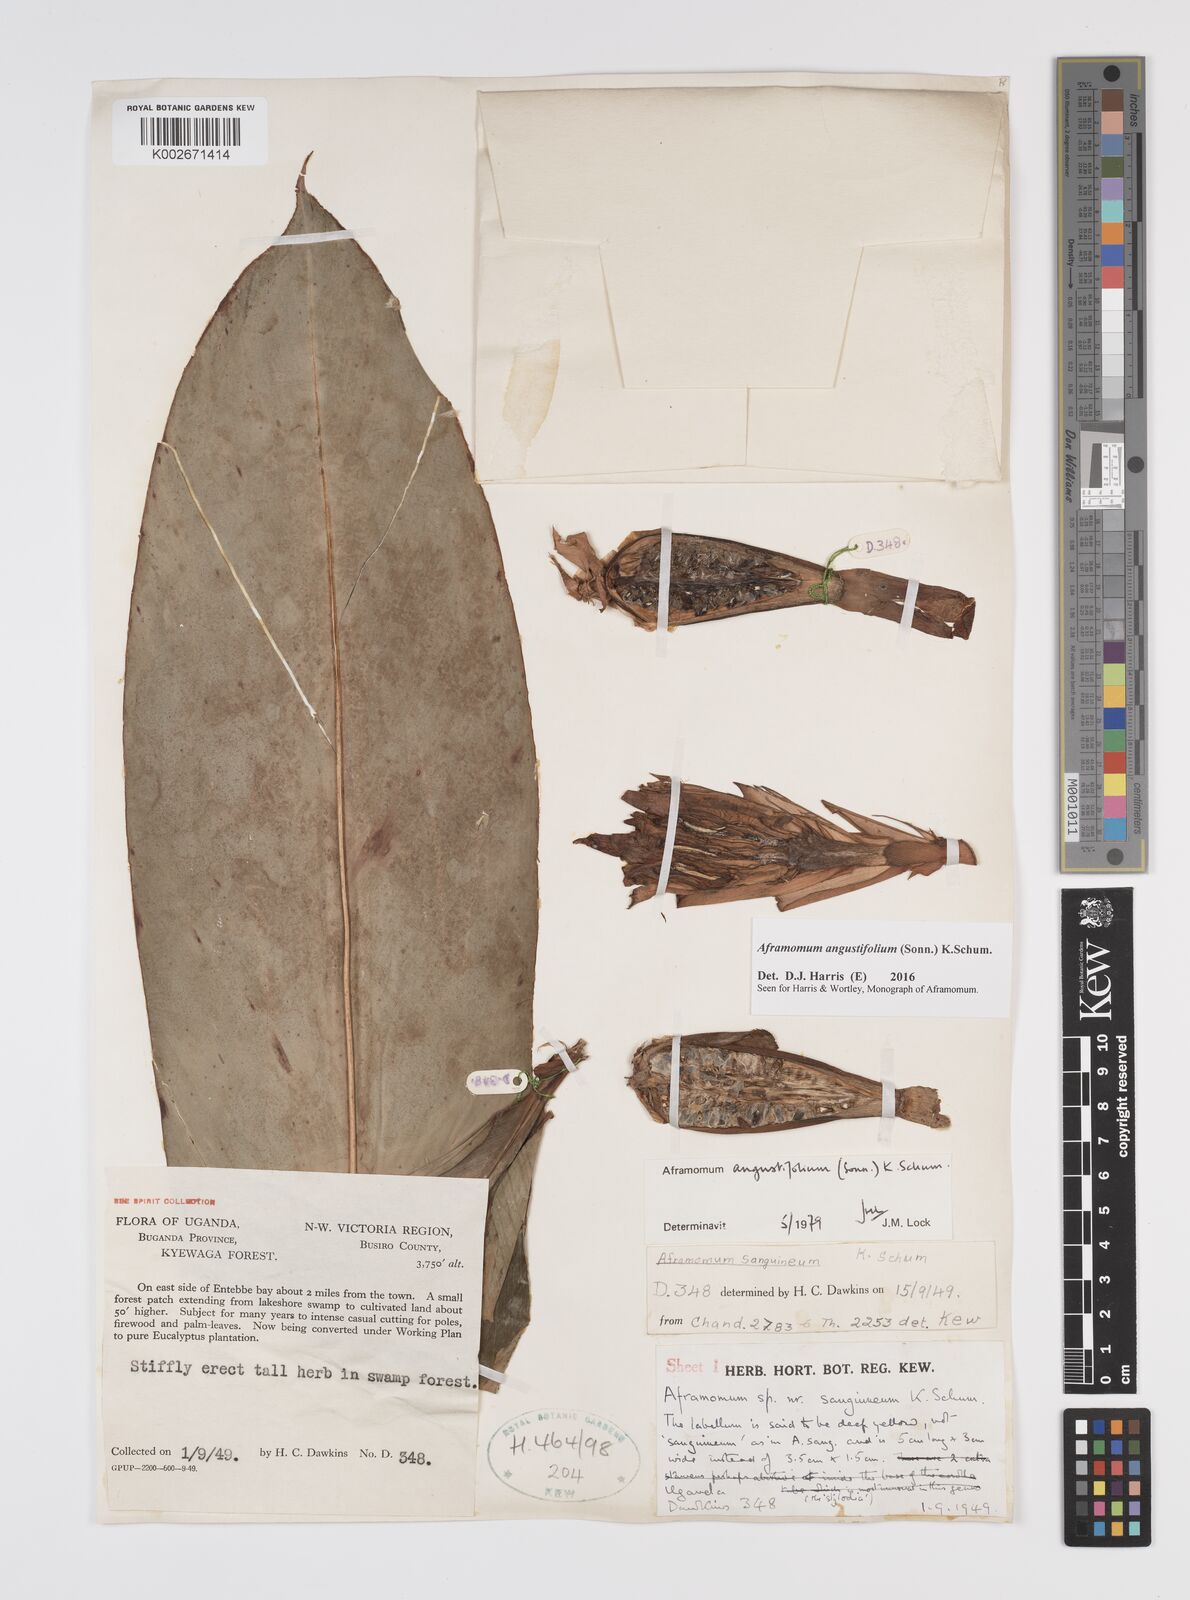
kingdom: Plantae
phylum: Tracheophyta
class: Liliopsida
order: Zingiberales
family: Zingiberaceae
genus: Aframomum
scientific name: Aframomum angustifolium
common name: Guinea grains
